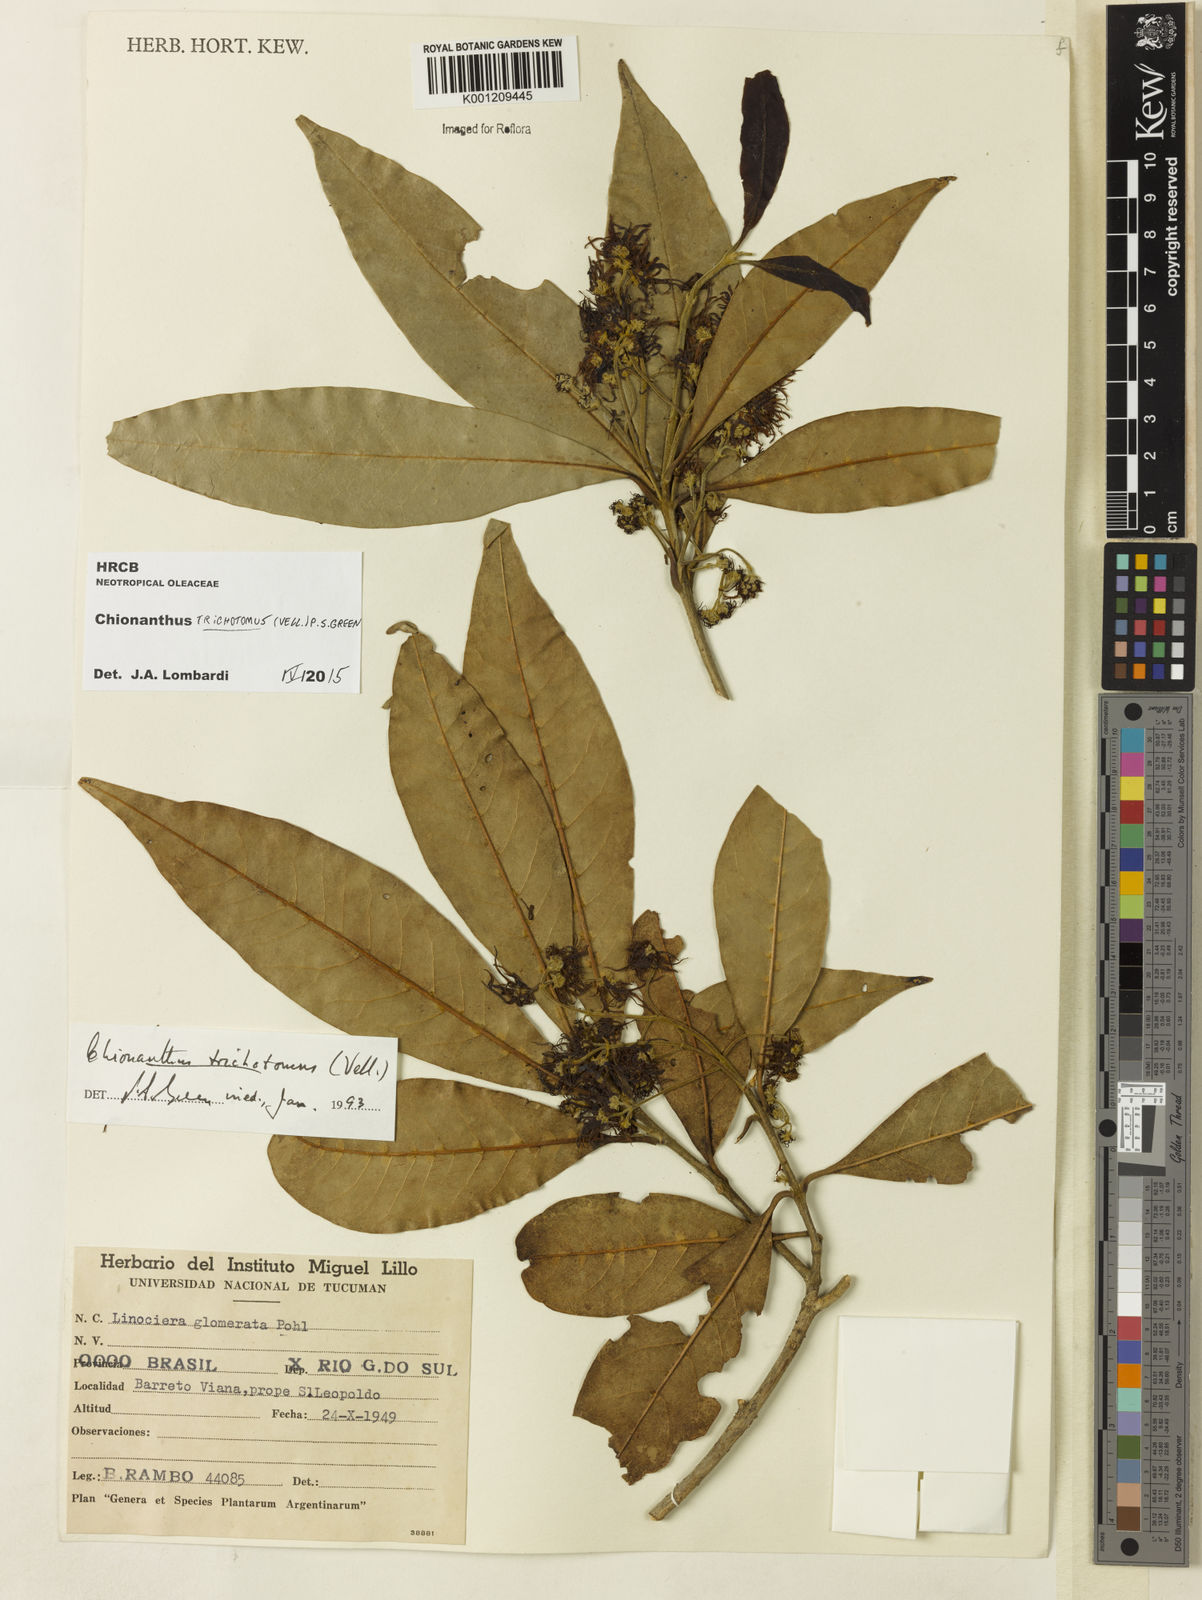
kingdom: Plantae
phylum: Tracheophyta
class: Magnoliopsida
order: Lamiales
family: Oleaceae
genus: Chionanthus
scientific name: Chionanthus trichotomus
